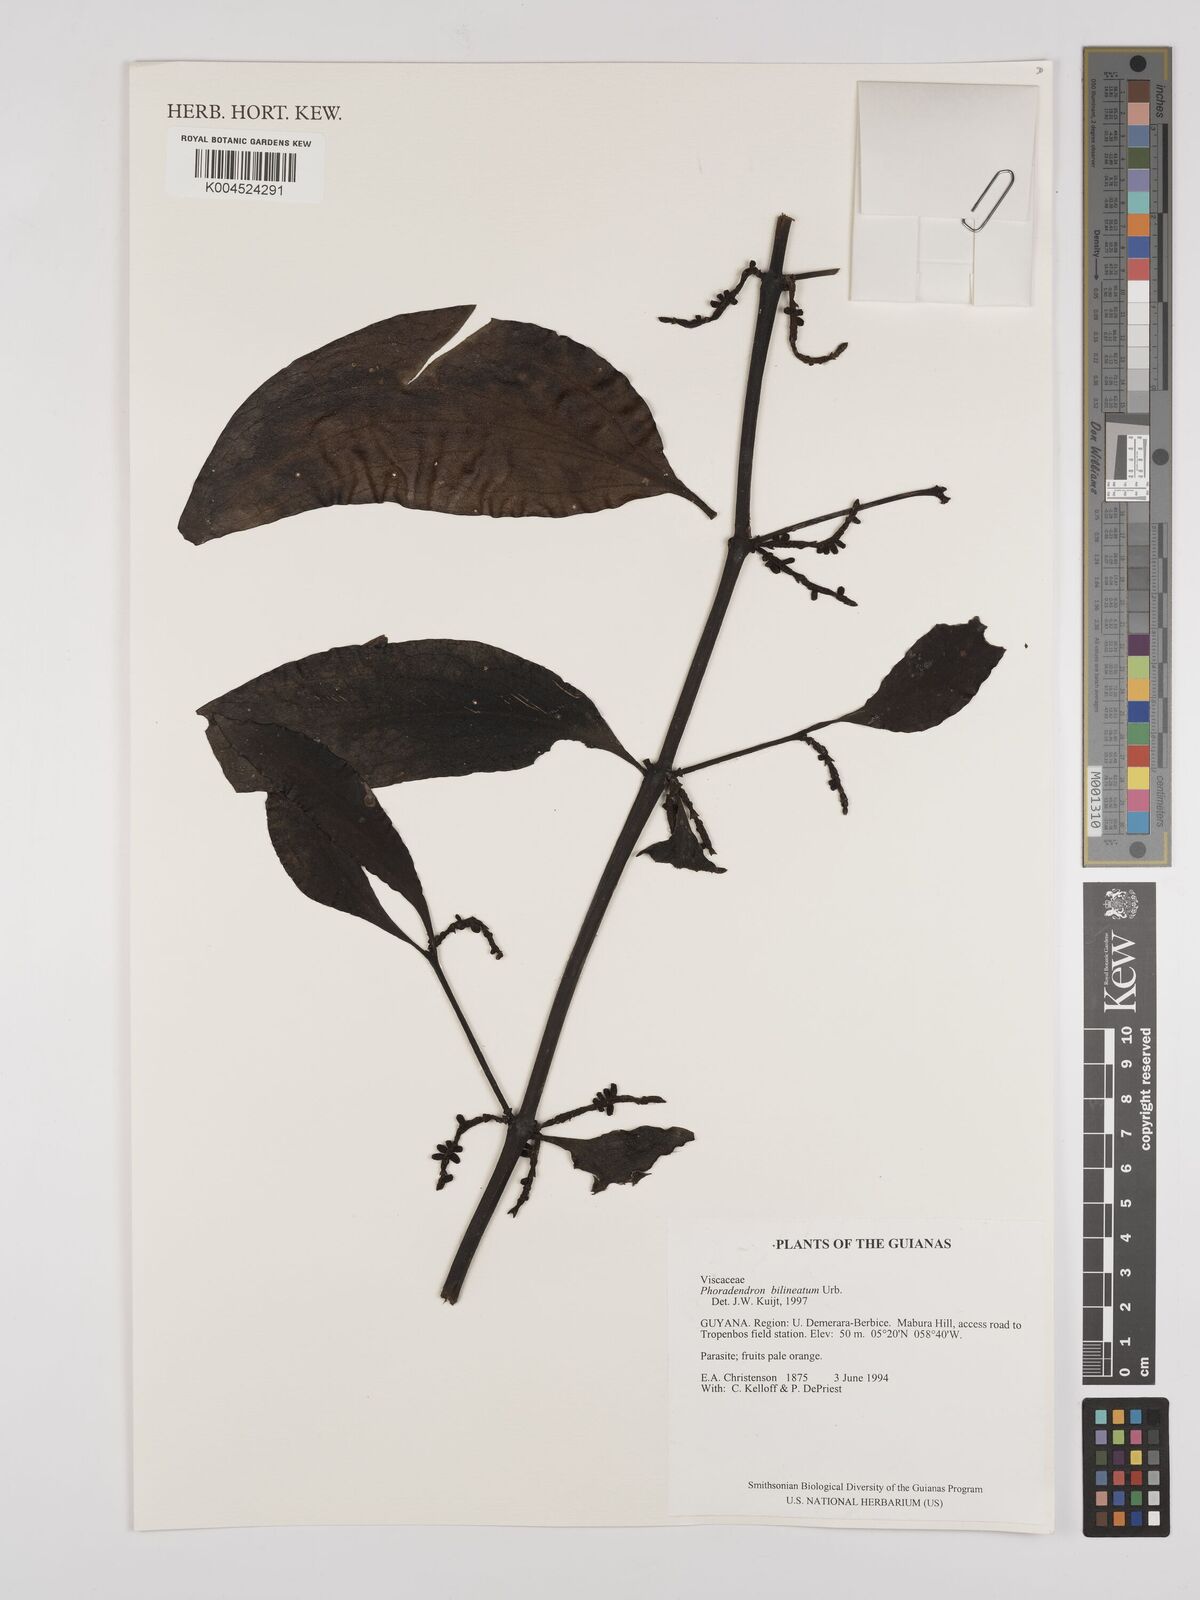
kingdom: Plantae
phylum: Tracheophyta
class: Magnoliopsida
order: Santalales
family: Viscaceae
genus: Phoradendron
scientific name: Phoradendron bilineatum
